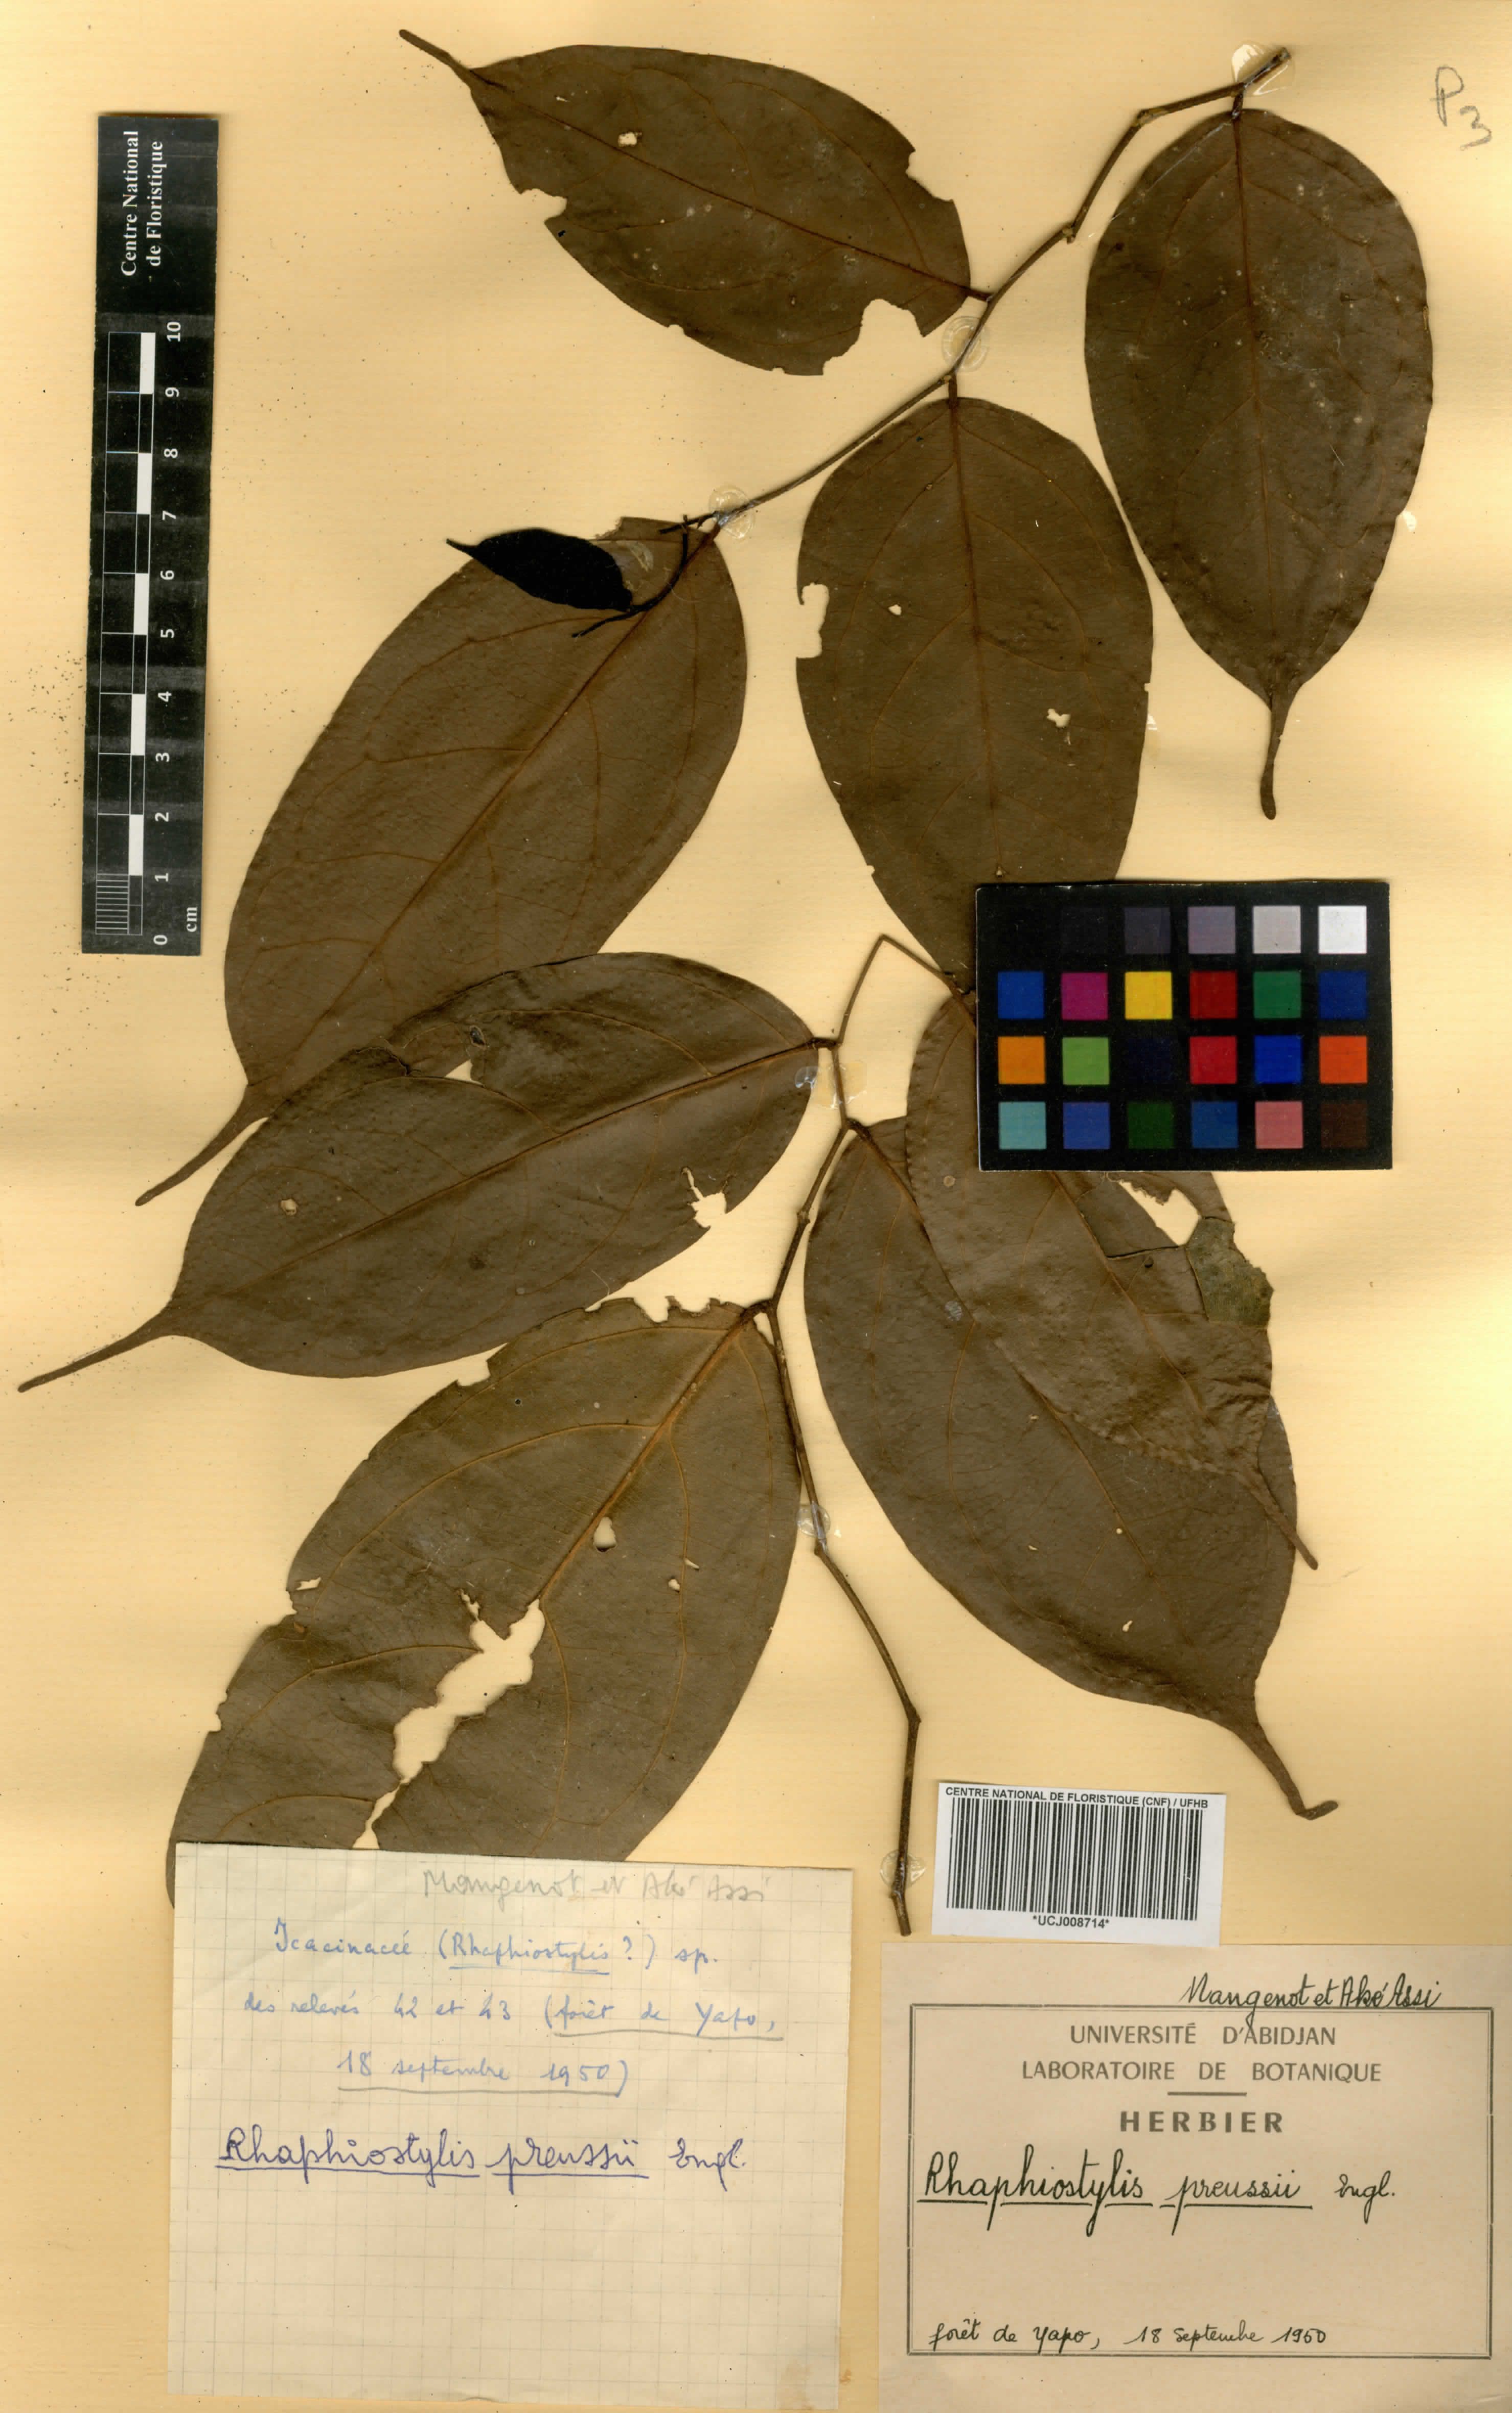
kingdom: Plantae
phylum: Tracheophyta
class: Magnoliopsida
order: Metteniusales
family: Metteniusaceae
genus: Rhaphiostylis
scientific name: Rhaphiostylis preussii
